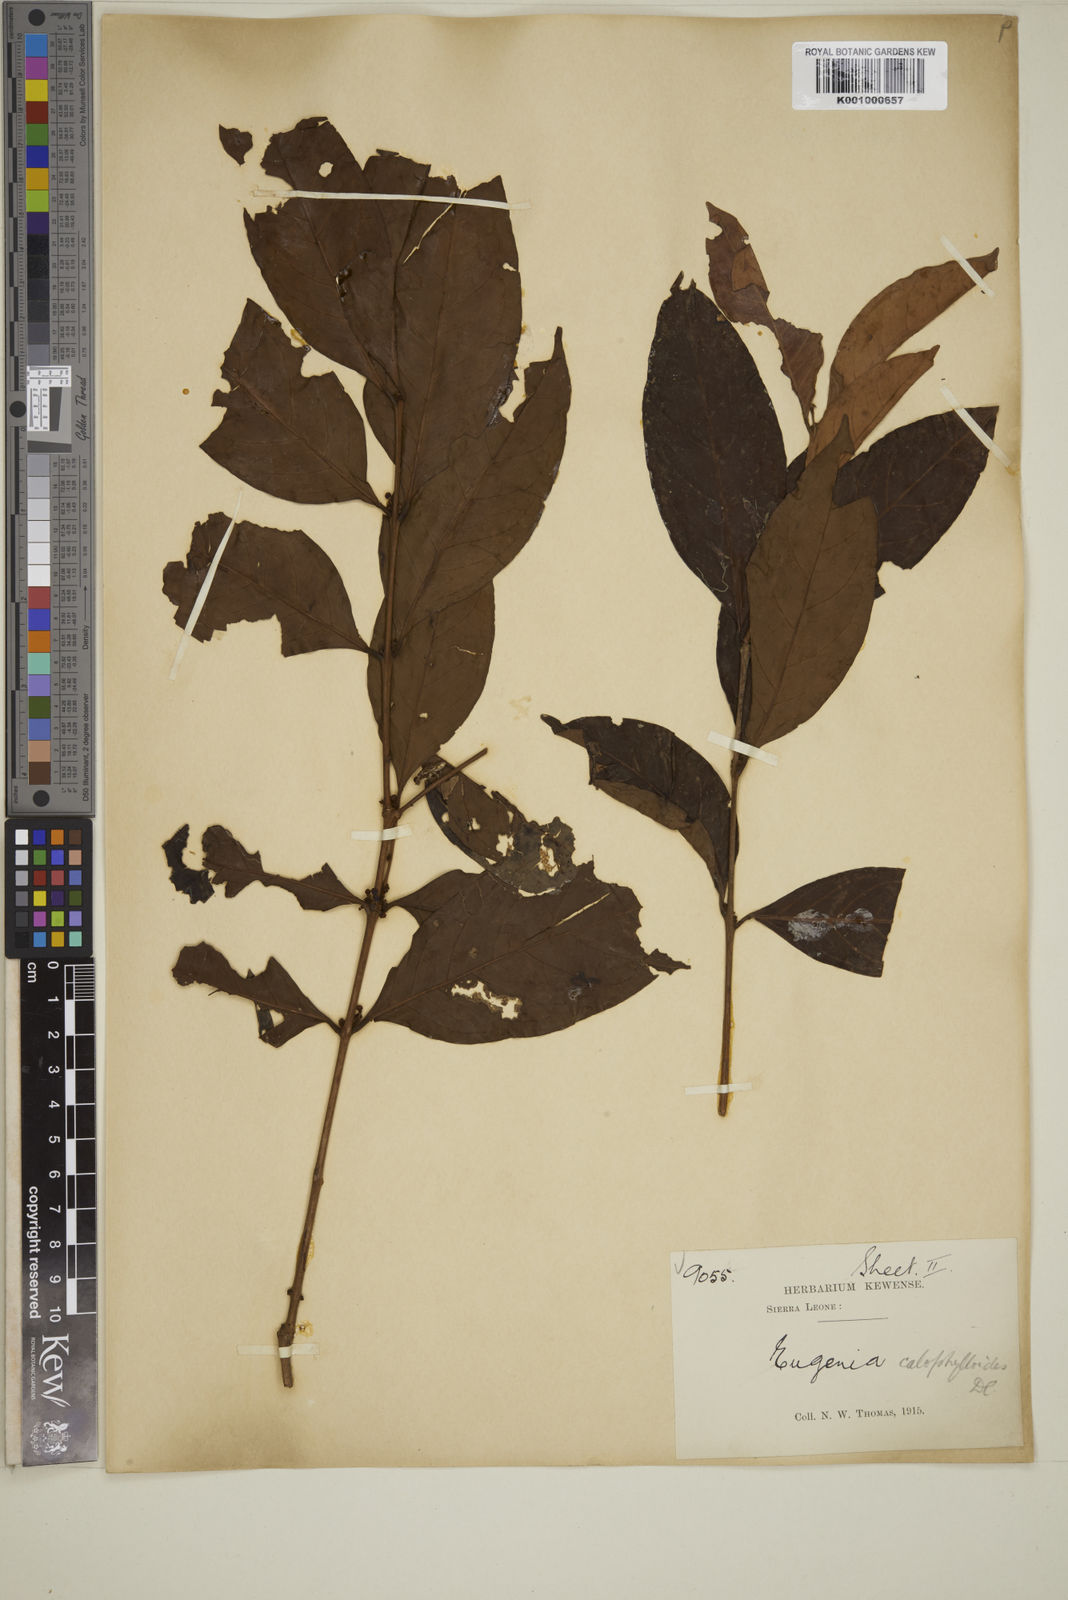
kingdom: Plantae
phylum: Tracheophyta
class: Magnoliopsida
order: Myrtales
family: Myrtaceae
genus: Eugenia
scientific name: Eugenia whytei
